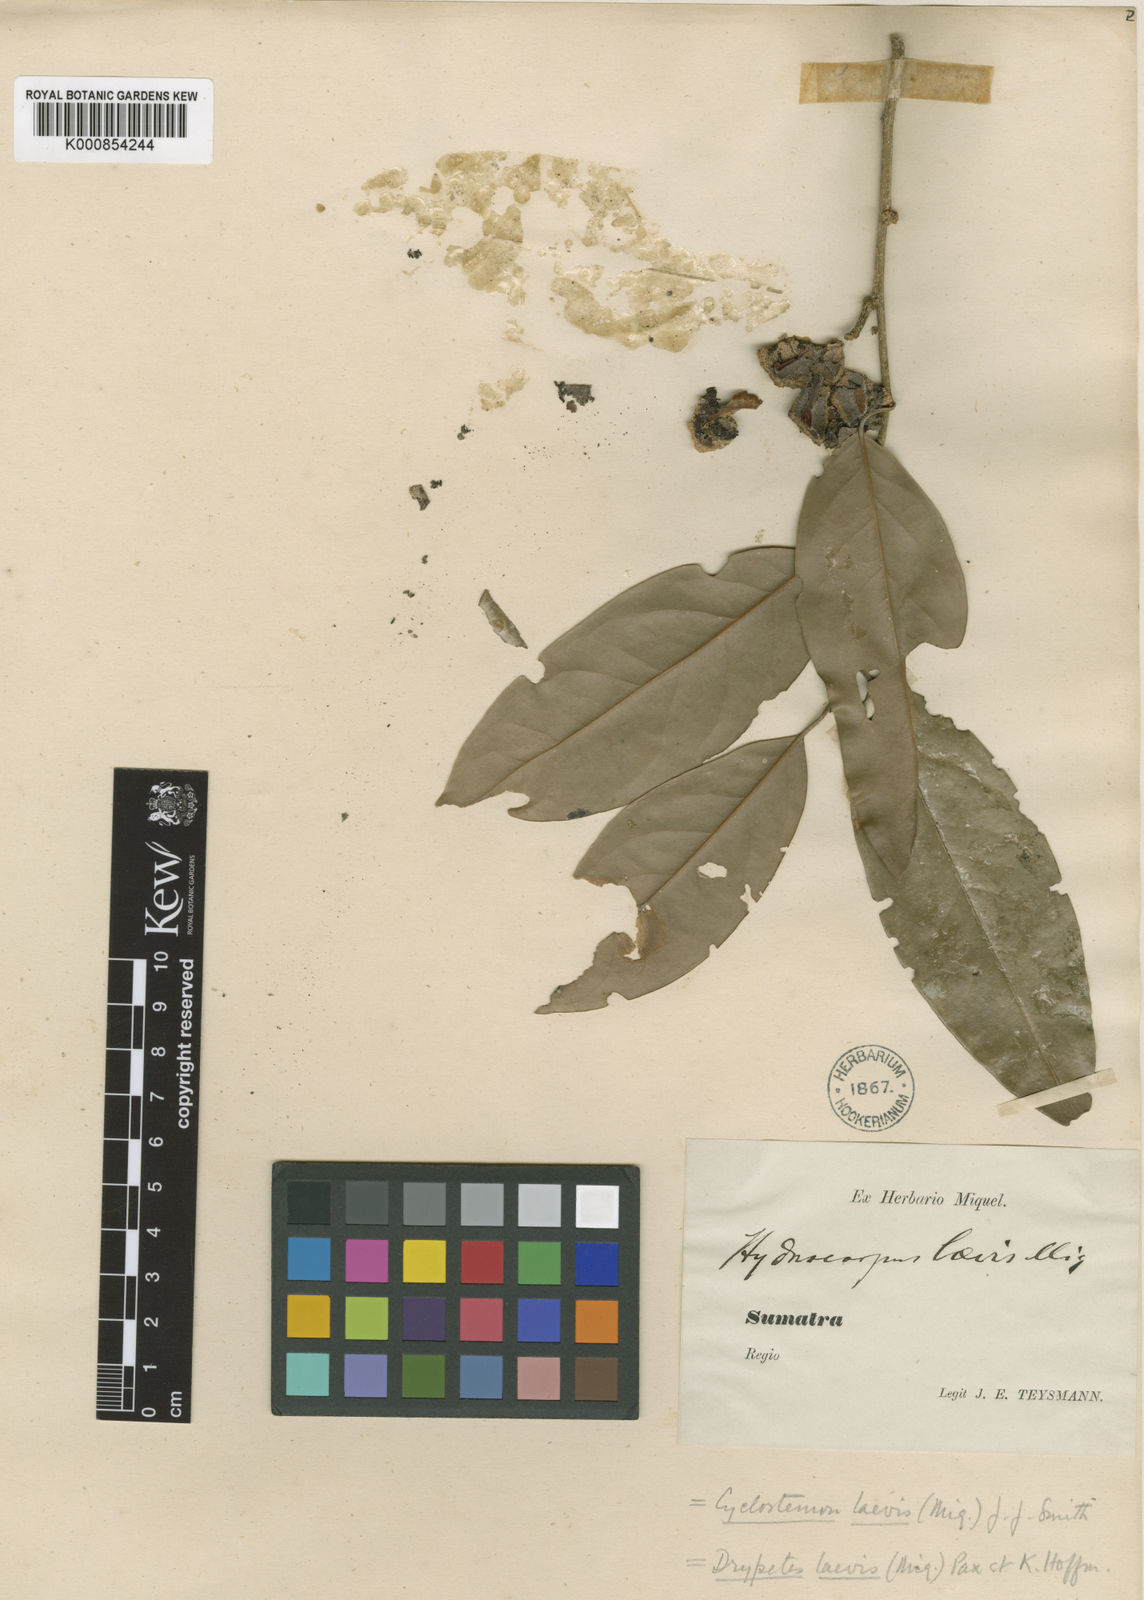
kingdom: Plantae
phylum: Tracheophyta
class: Magnoliopsida
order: Malpighiales
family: Putranjivaceae
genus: Drypetes
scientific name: Drypetes laevis
